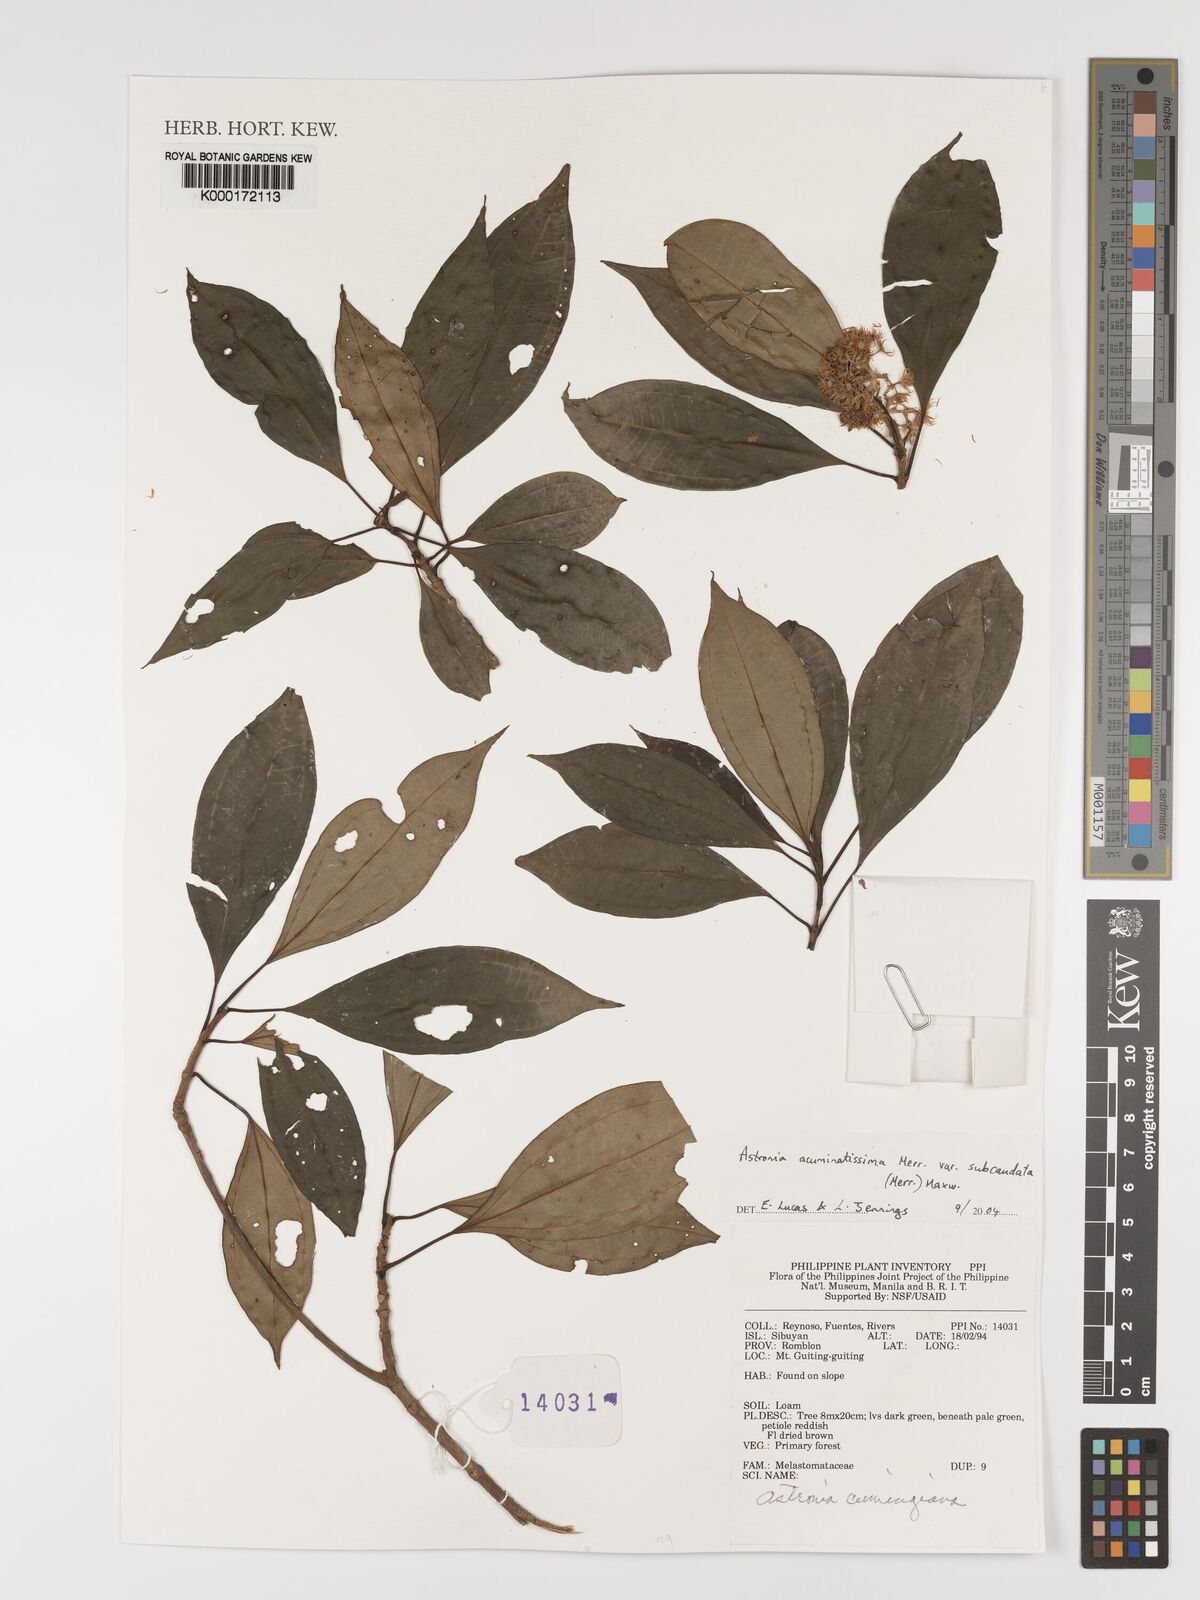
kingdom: Plantae
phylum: Tracheophyta
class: Magnoliopsida
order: Myrtales
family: Melastomataceae
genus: Astronia
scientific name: Astronia acuminatissima
